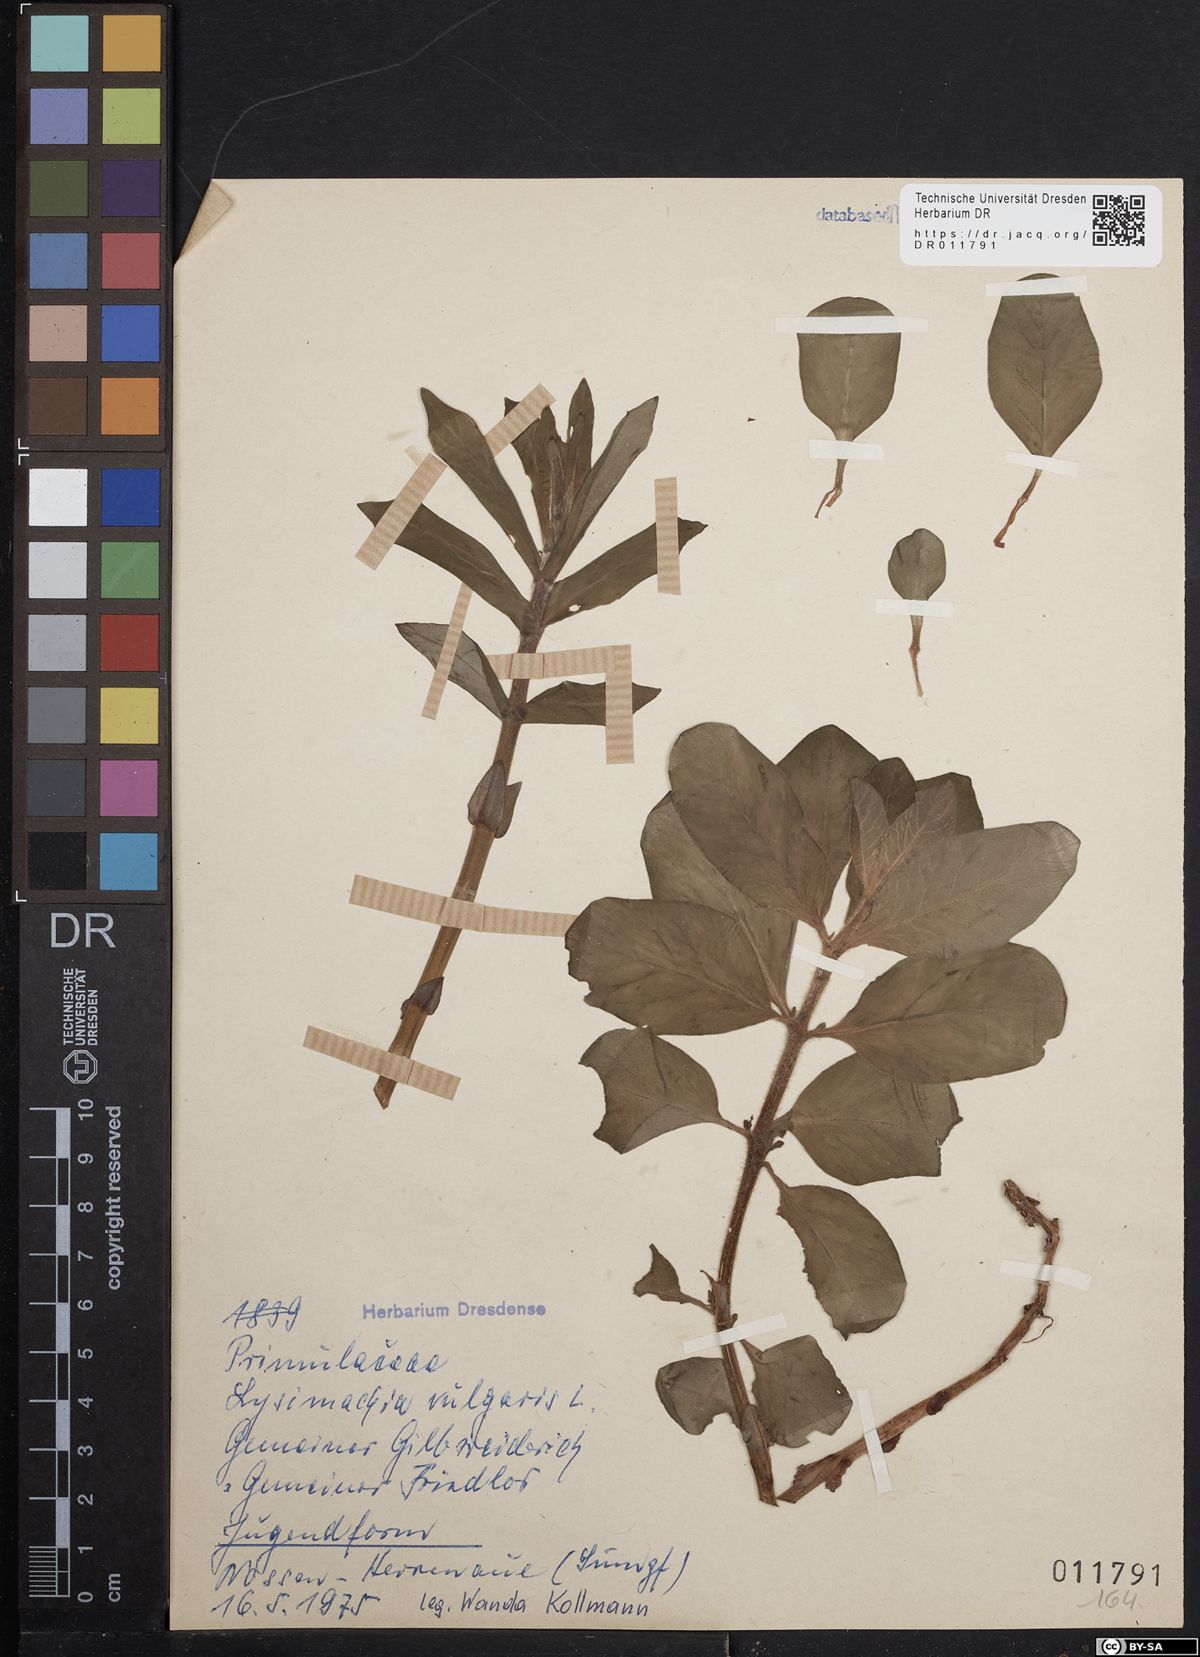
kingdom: Plantae
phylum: Tracheophyta
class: Magnoliopsida
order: Ericales
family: Primulaceae
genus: Lysimachia
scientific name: Lysimachia vulgaris
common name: Yellow loosestrife
